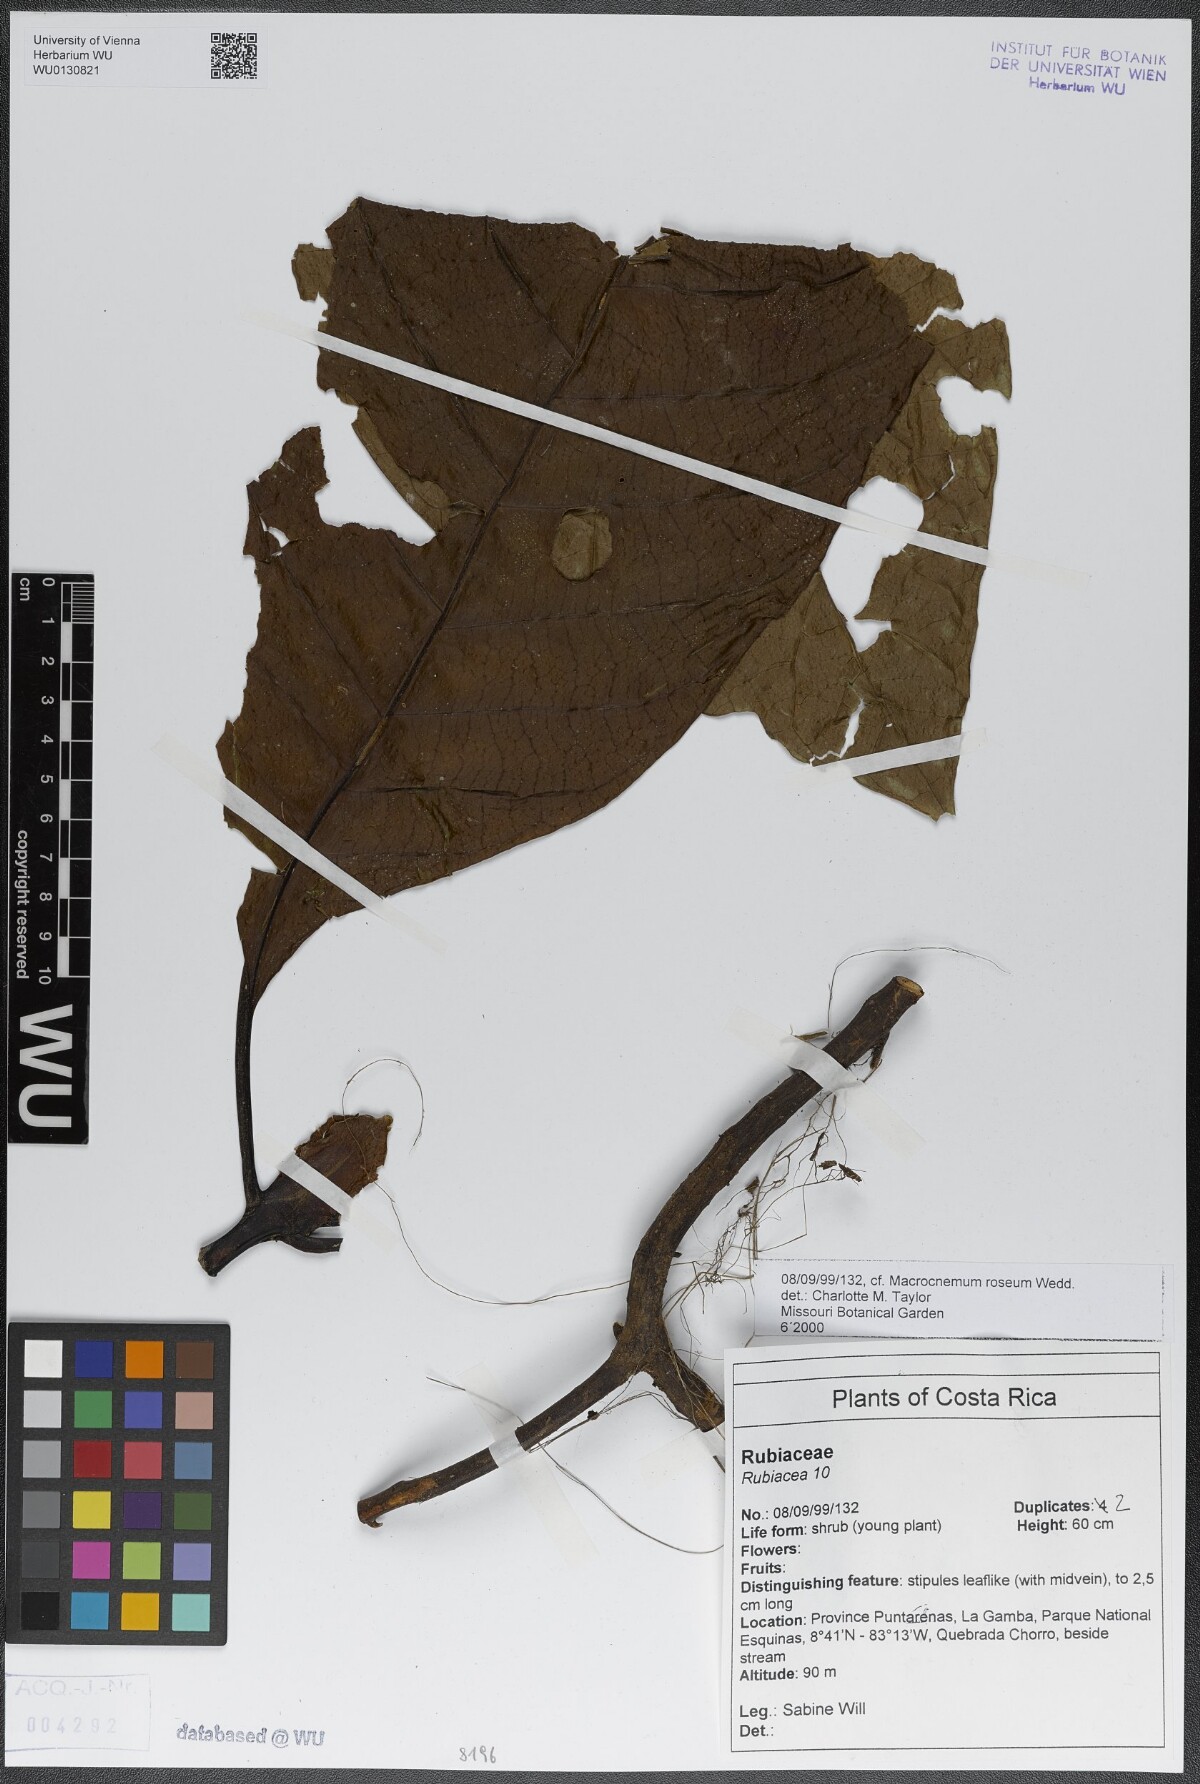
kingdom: Plantae
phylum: Tracheophyta
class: Magnoliopsida
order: Gentianales
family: Rubiaceae
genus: Macrocnemum
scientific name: Macrocnemum roseum
